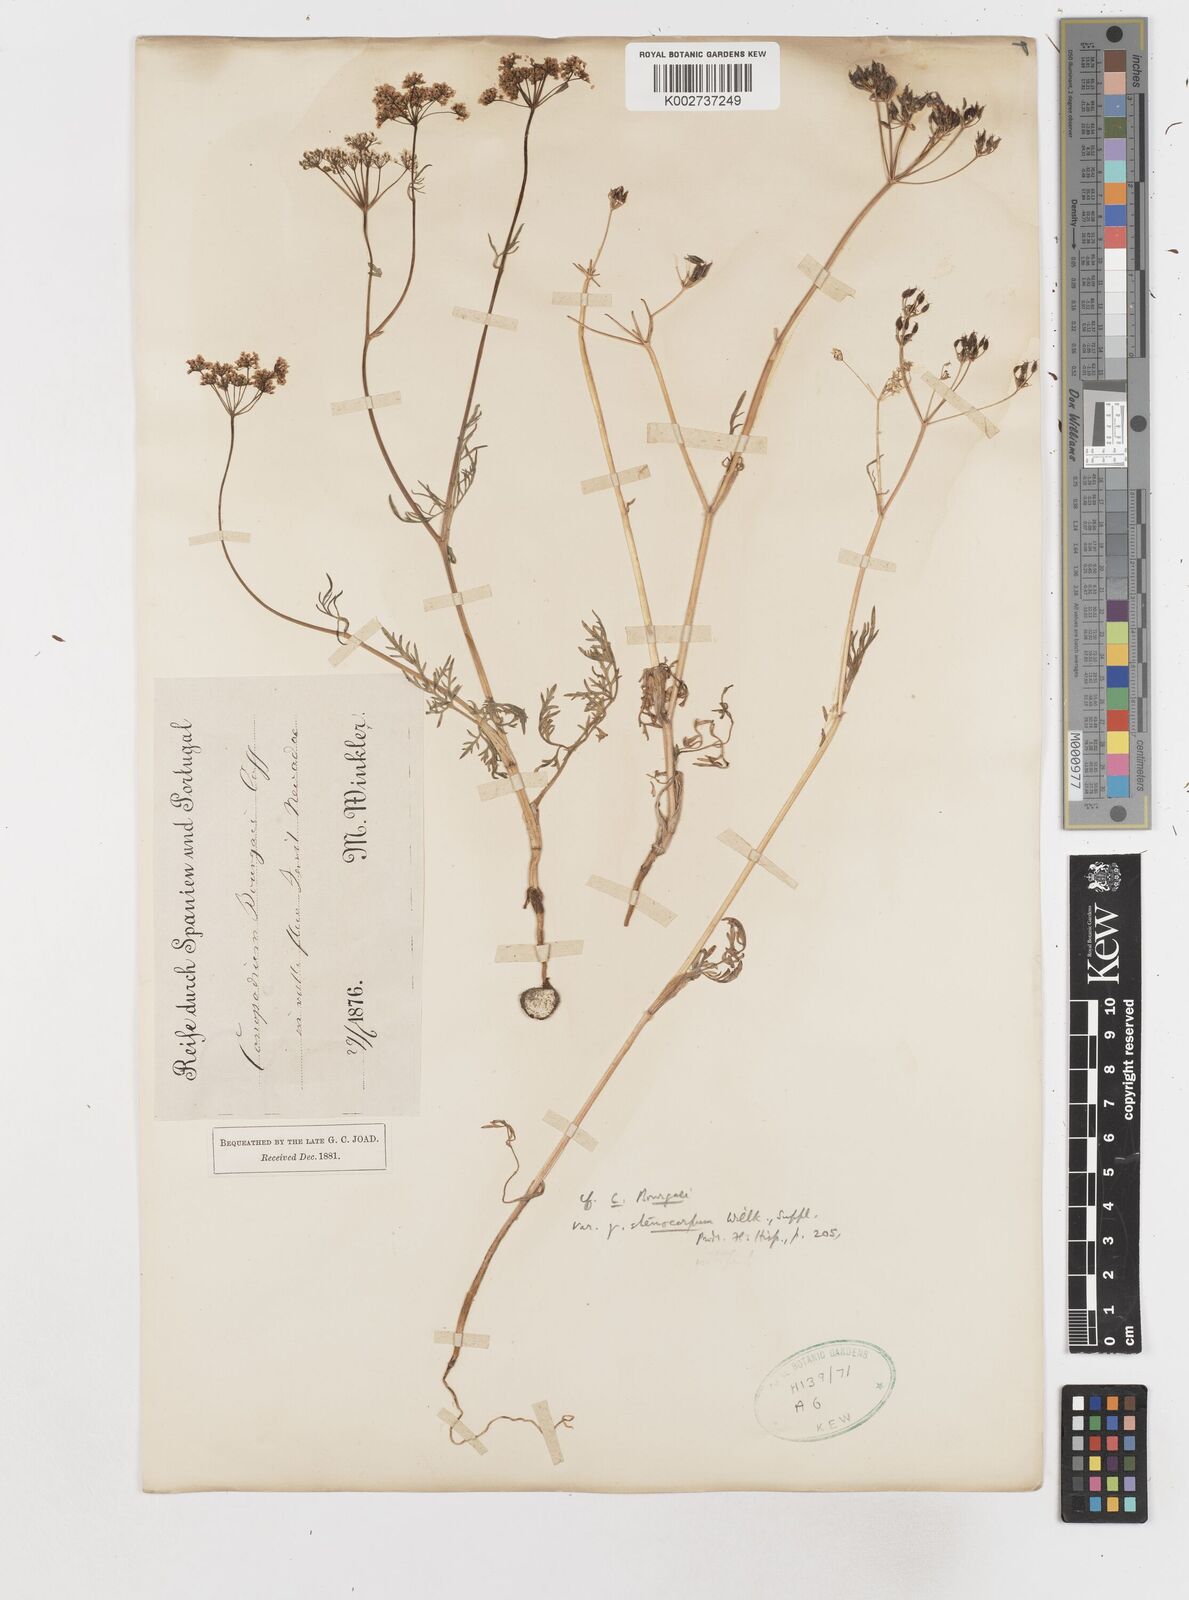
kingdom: Plantae
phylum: Tracheophyta
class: Magnoliopsida
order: Apiales
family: Apiaceae
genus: Conopodium
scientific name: Conopodium pyrenaeum
